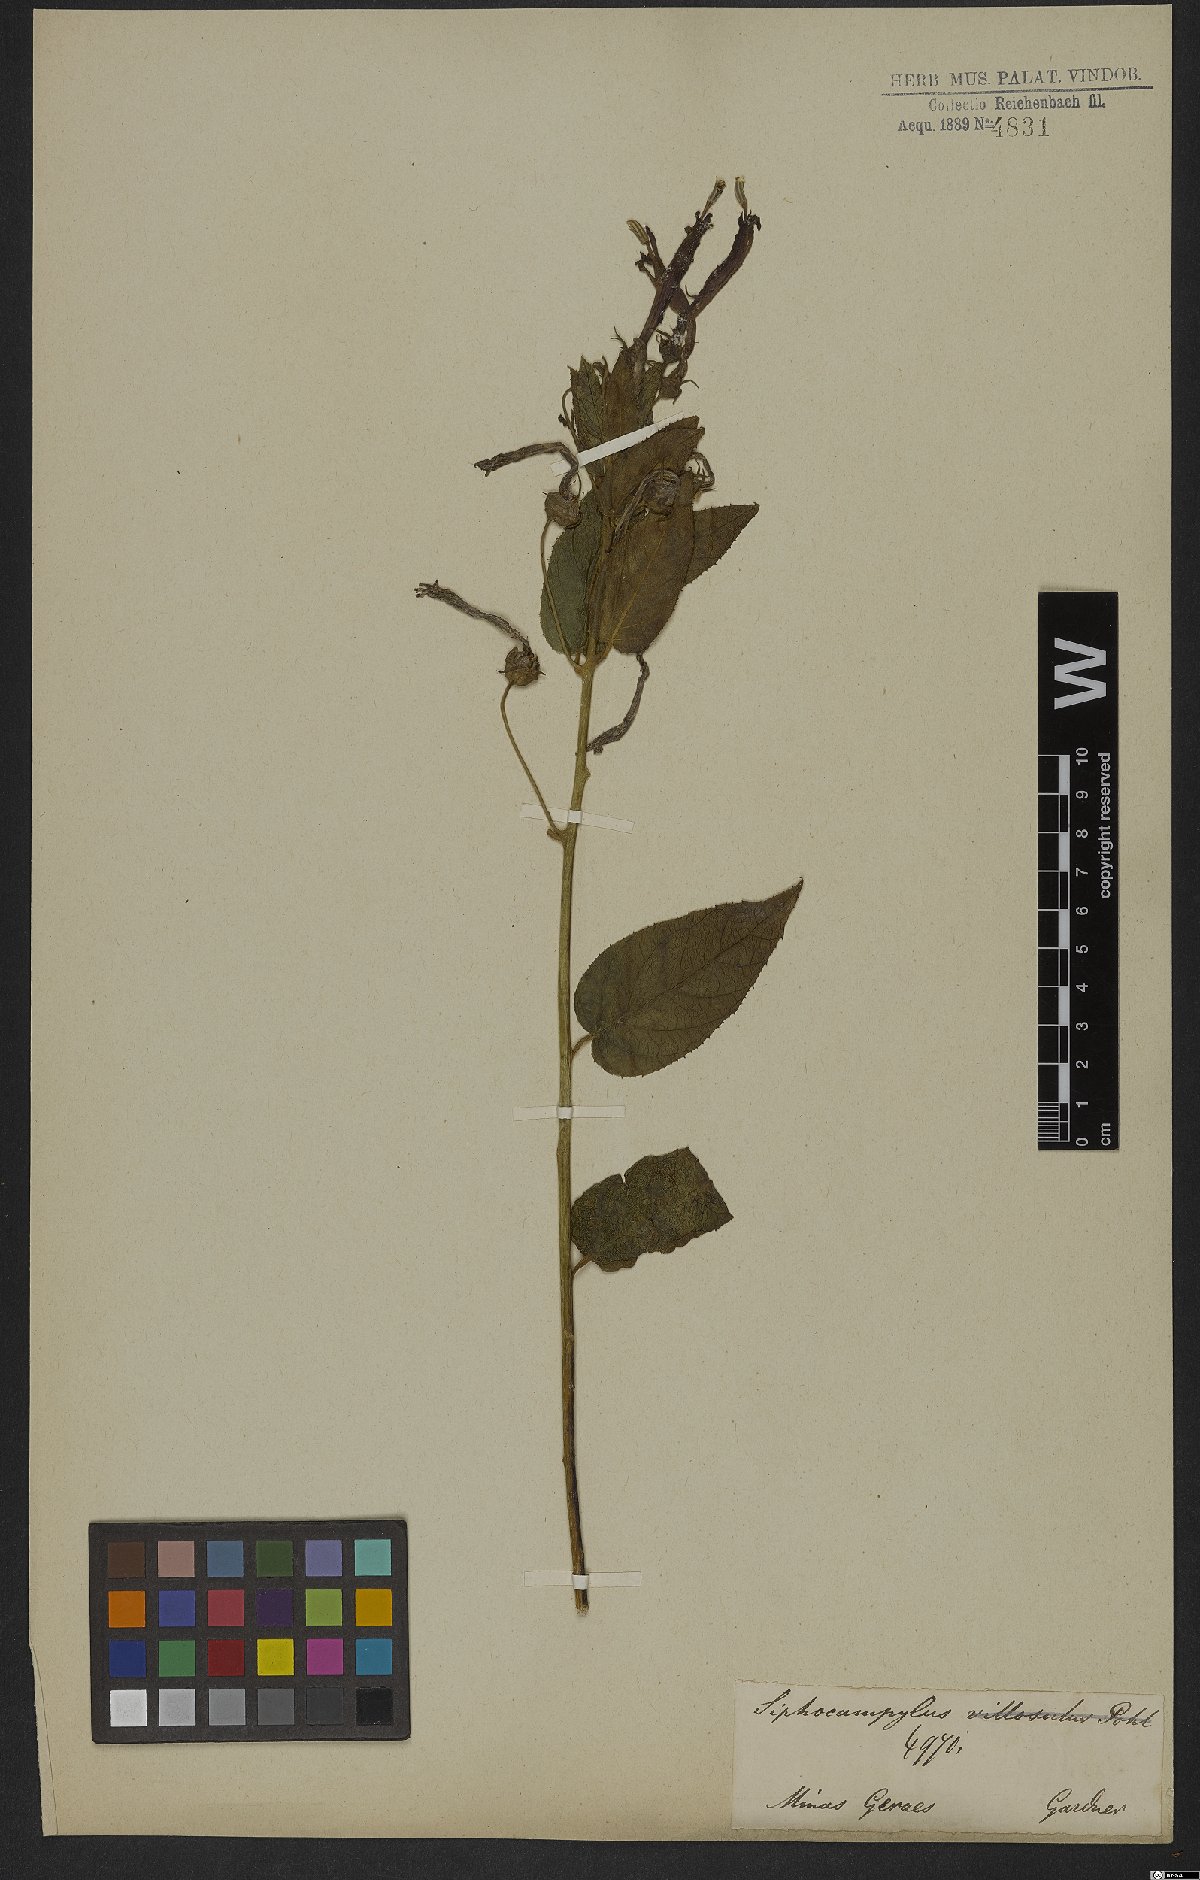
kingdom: Plantae
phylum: Tracheophyta
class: Magnoliopsida
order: Asterales
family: Campanulaceae
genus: Siphocampylus
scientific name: Siphocampylus nitidus
